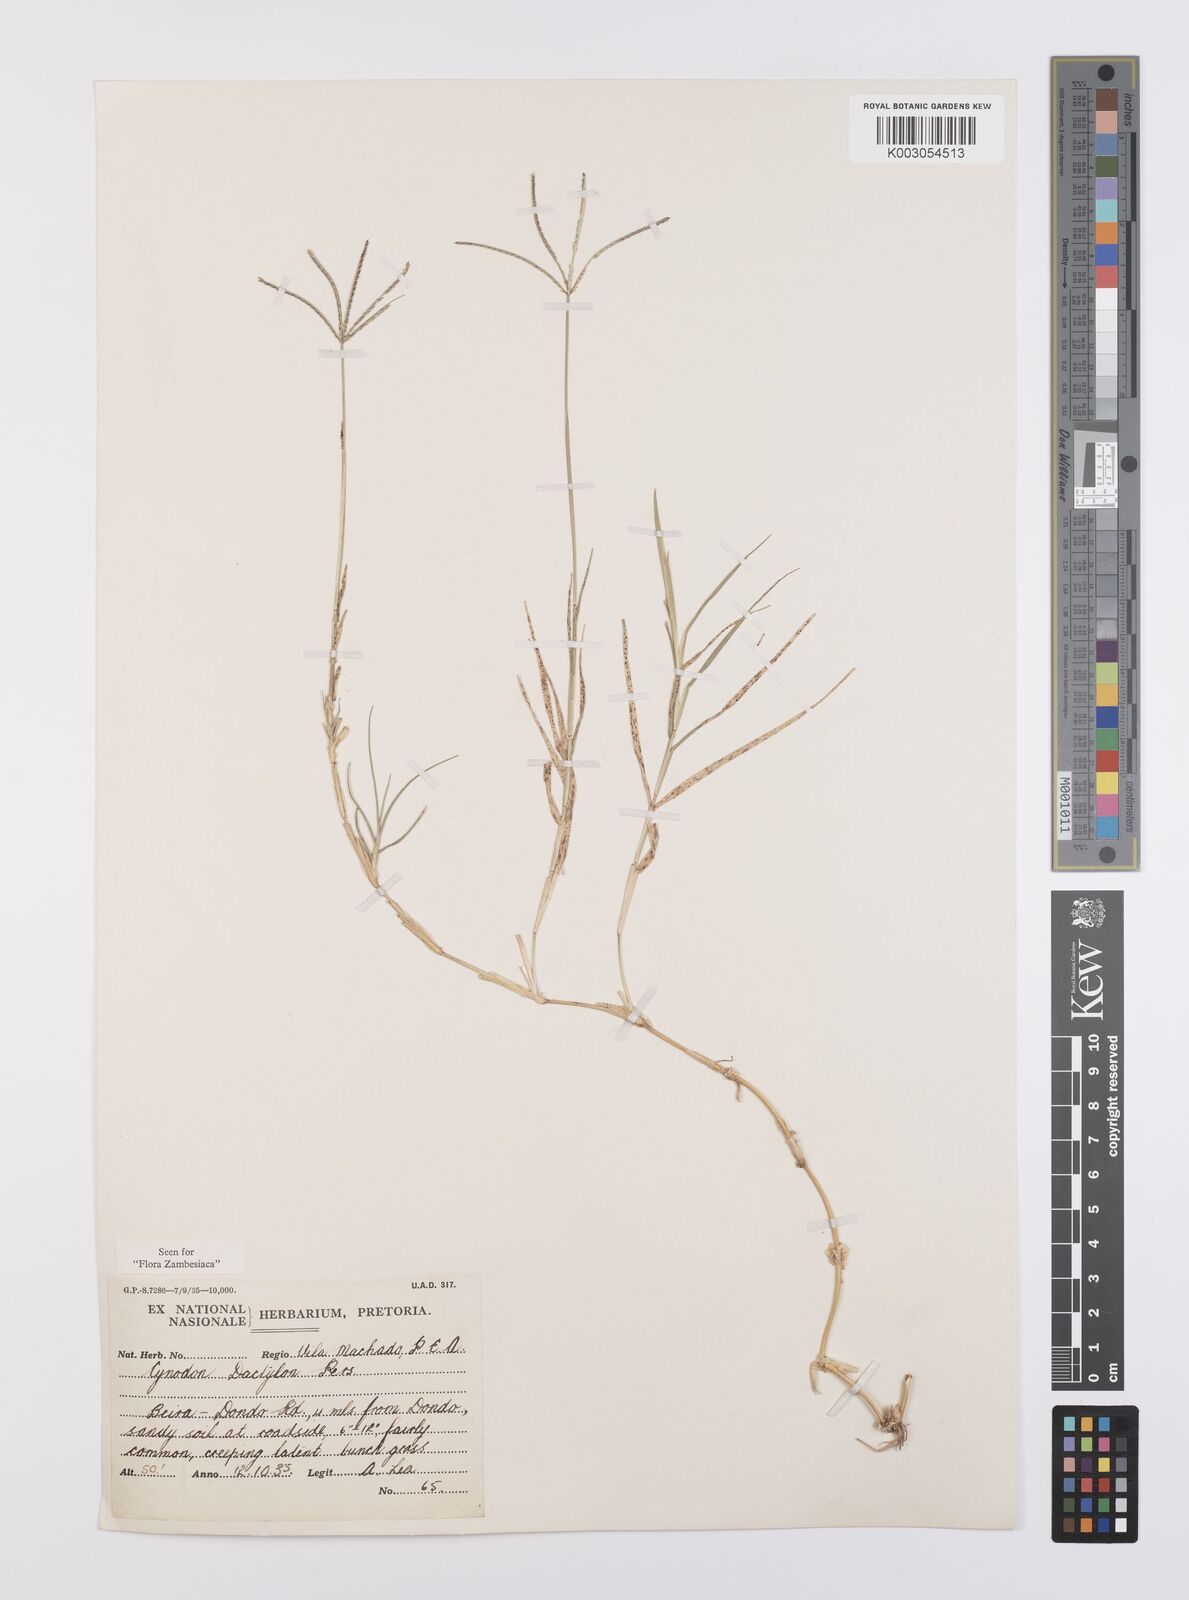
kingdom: Plantae
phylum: Tracheophyta
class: Liliopsida
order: Poales
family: Poaceae
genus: Cynodon
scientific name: Cynodon dactylon
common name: Bermuda grass
